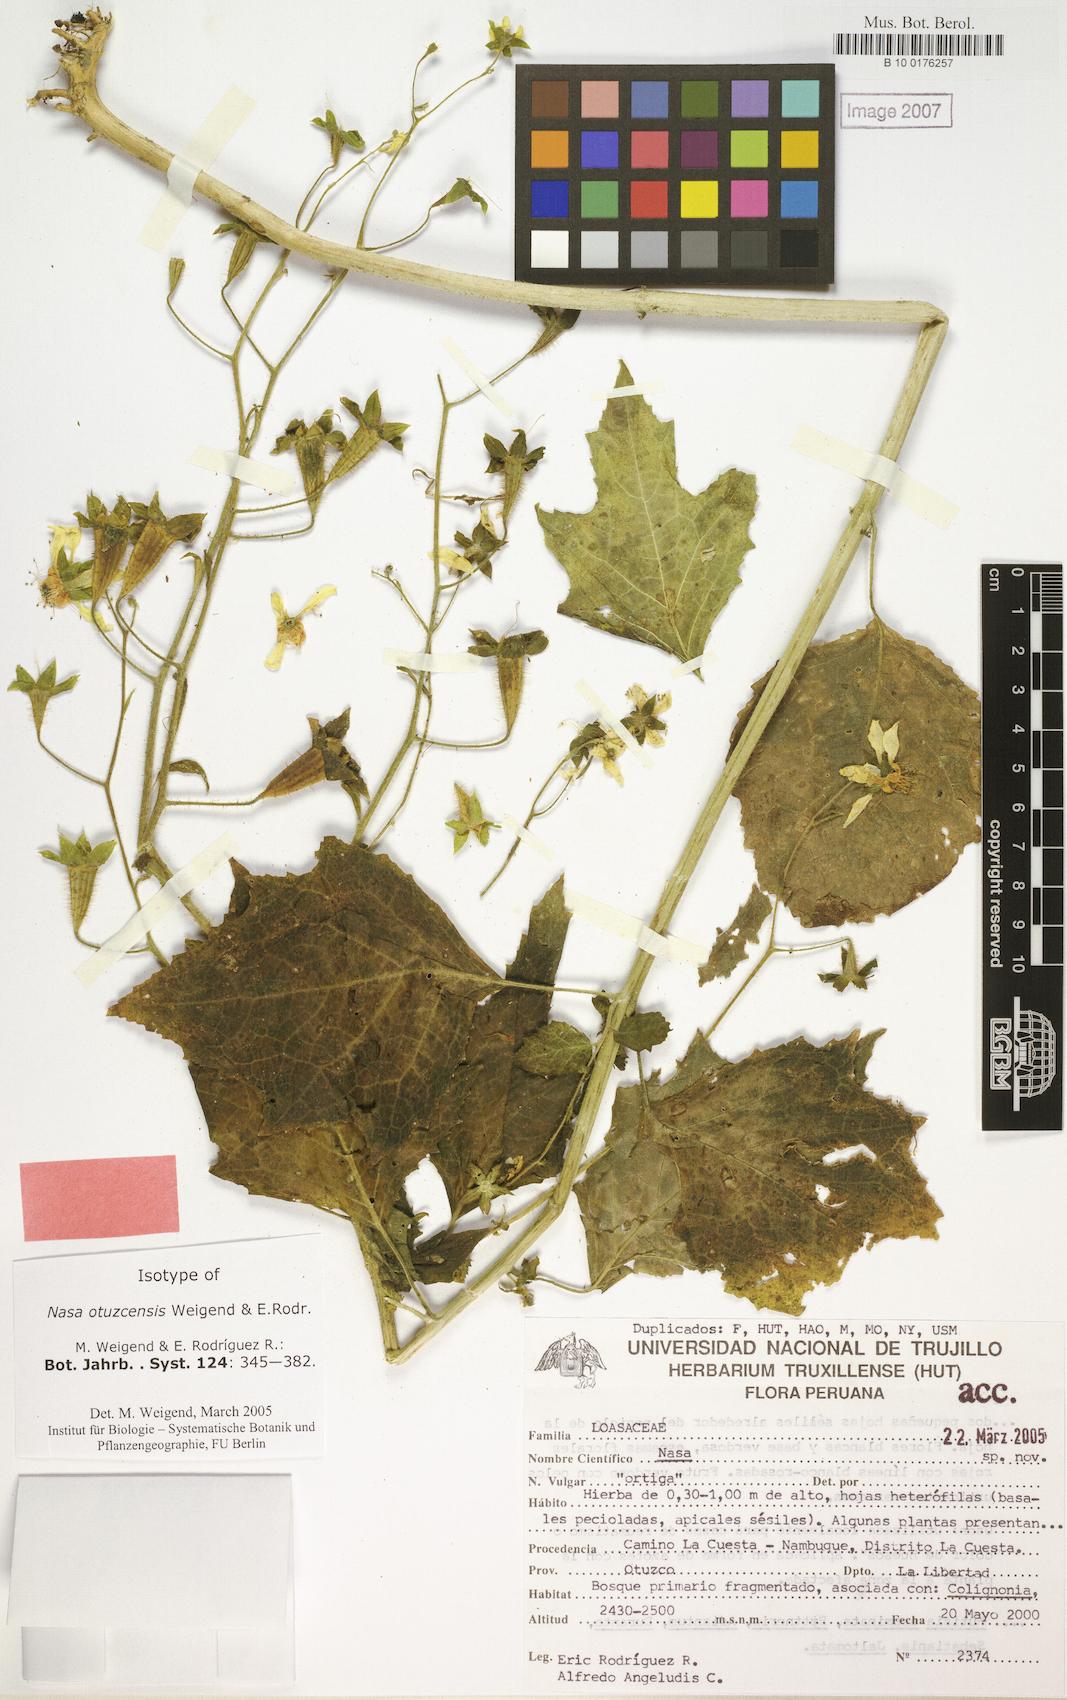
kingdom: Plantae
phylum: Tracheophyta
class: Magnoliopsida
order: Cornales
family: Loasaceae
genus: Nasa
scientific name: Nasa otuzcensis
